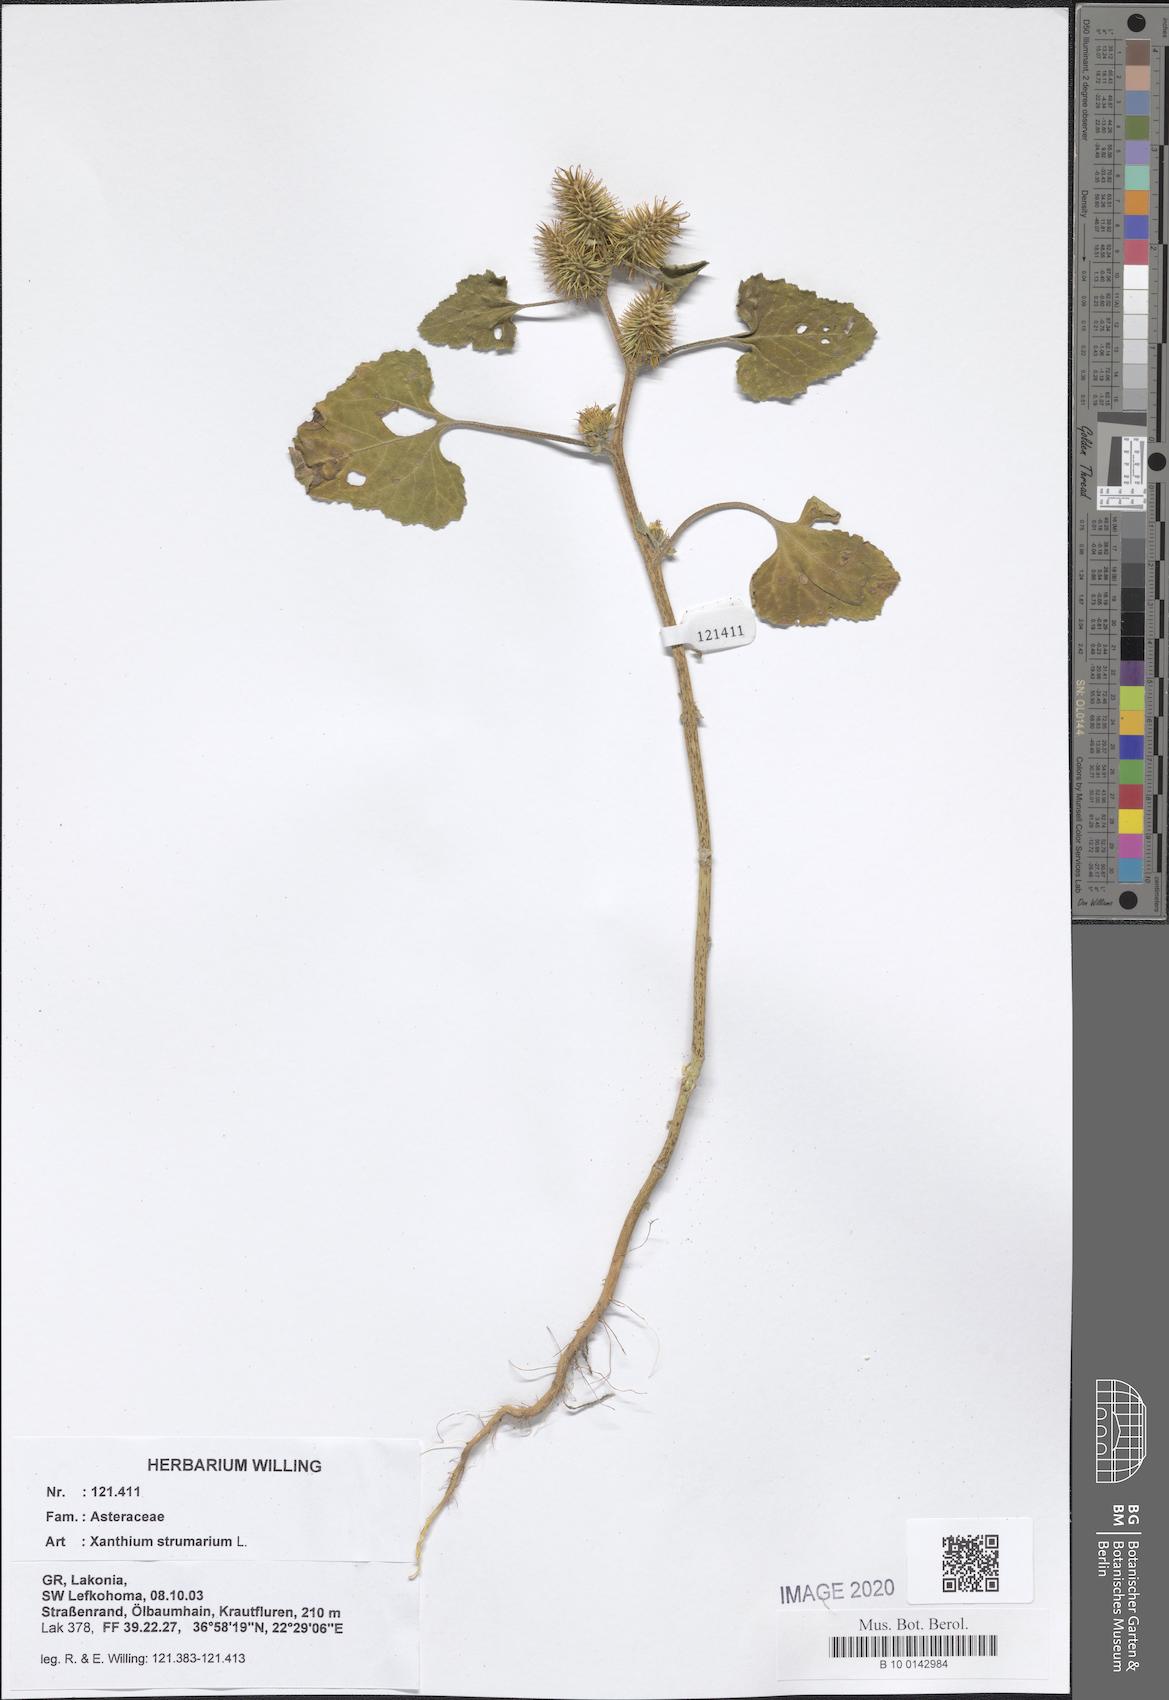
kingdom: Plantae
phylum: Tracheophyta
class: Magnoliopsida
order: Asterales
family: Asteraceae
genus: Xanthium
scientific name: Xanthium strumarium
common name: Rough cocklebur
